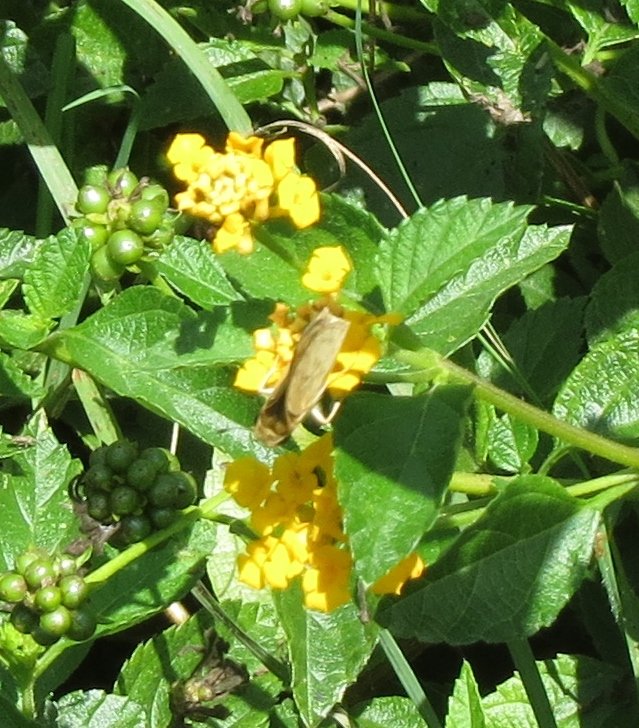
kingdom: Animalia
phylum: Arthropoda
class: Insecta
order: Lepidoptera
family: Hesperiidae
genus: Hylephila
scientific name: Hylephila phyleus
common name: Fiery Skipper
